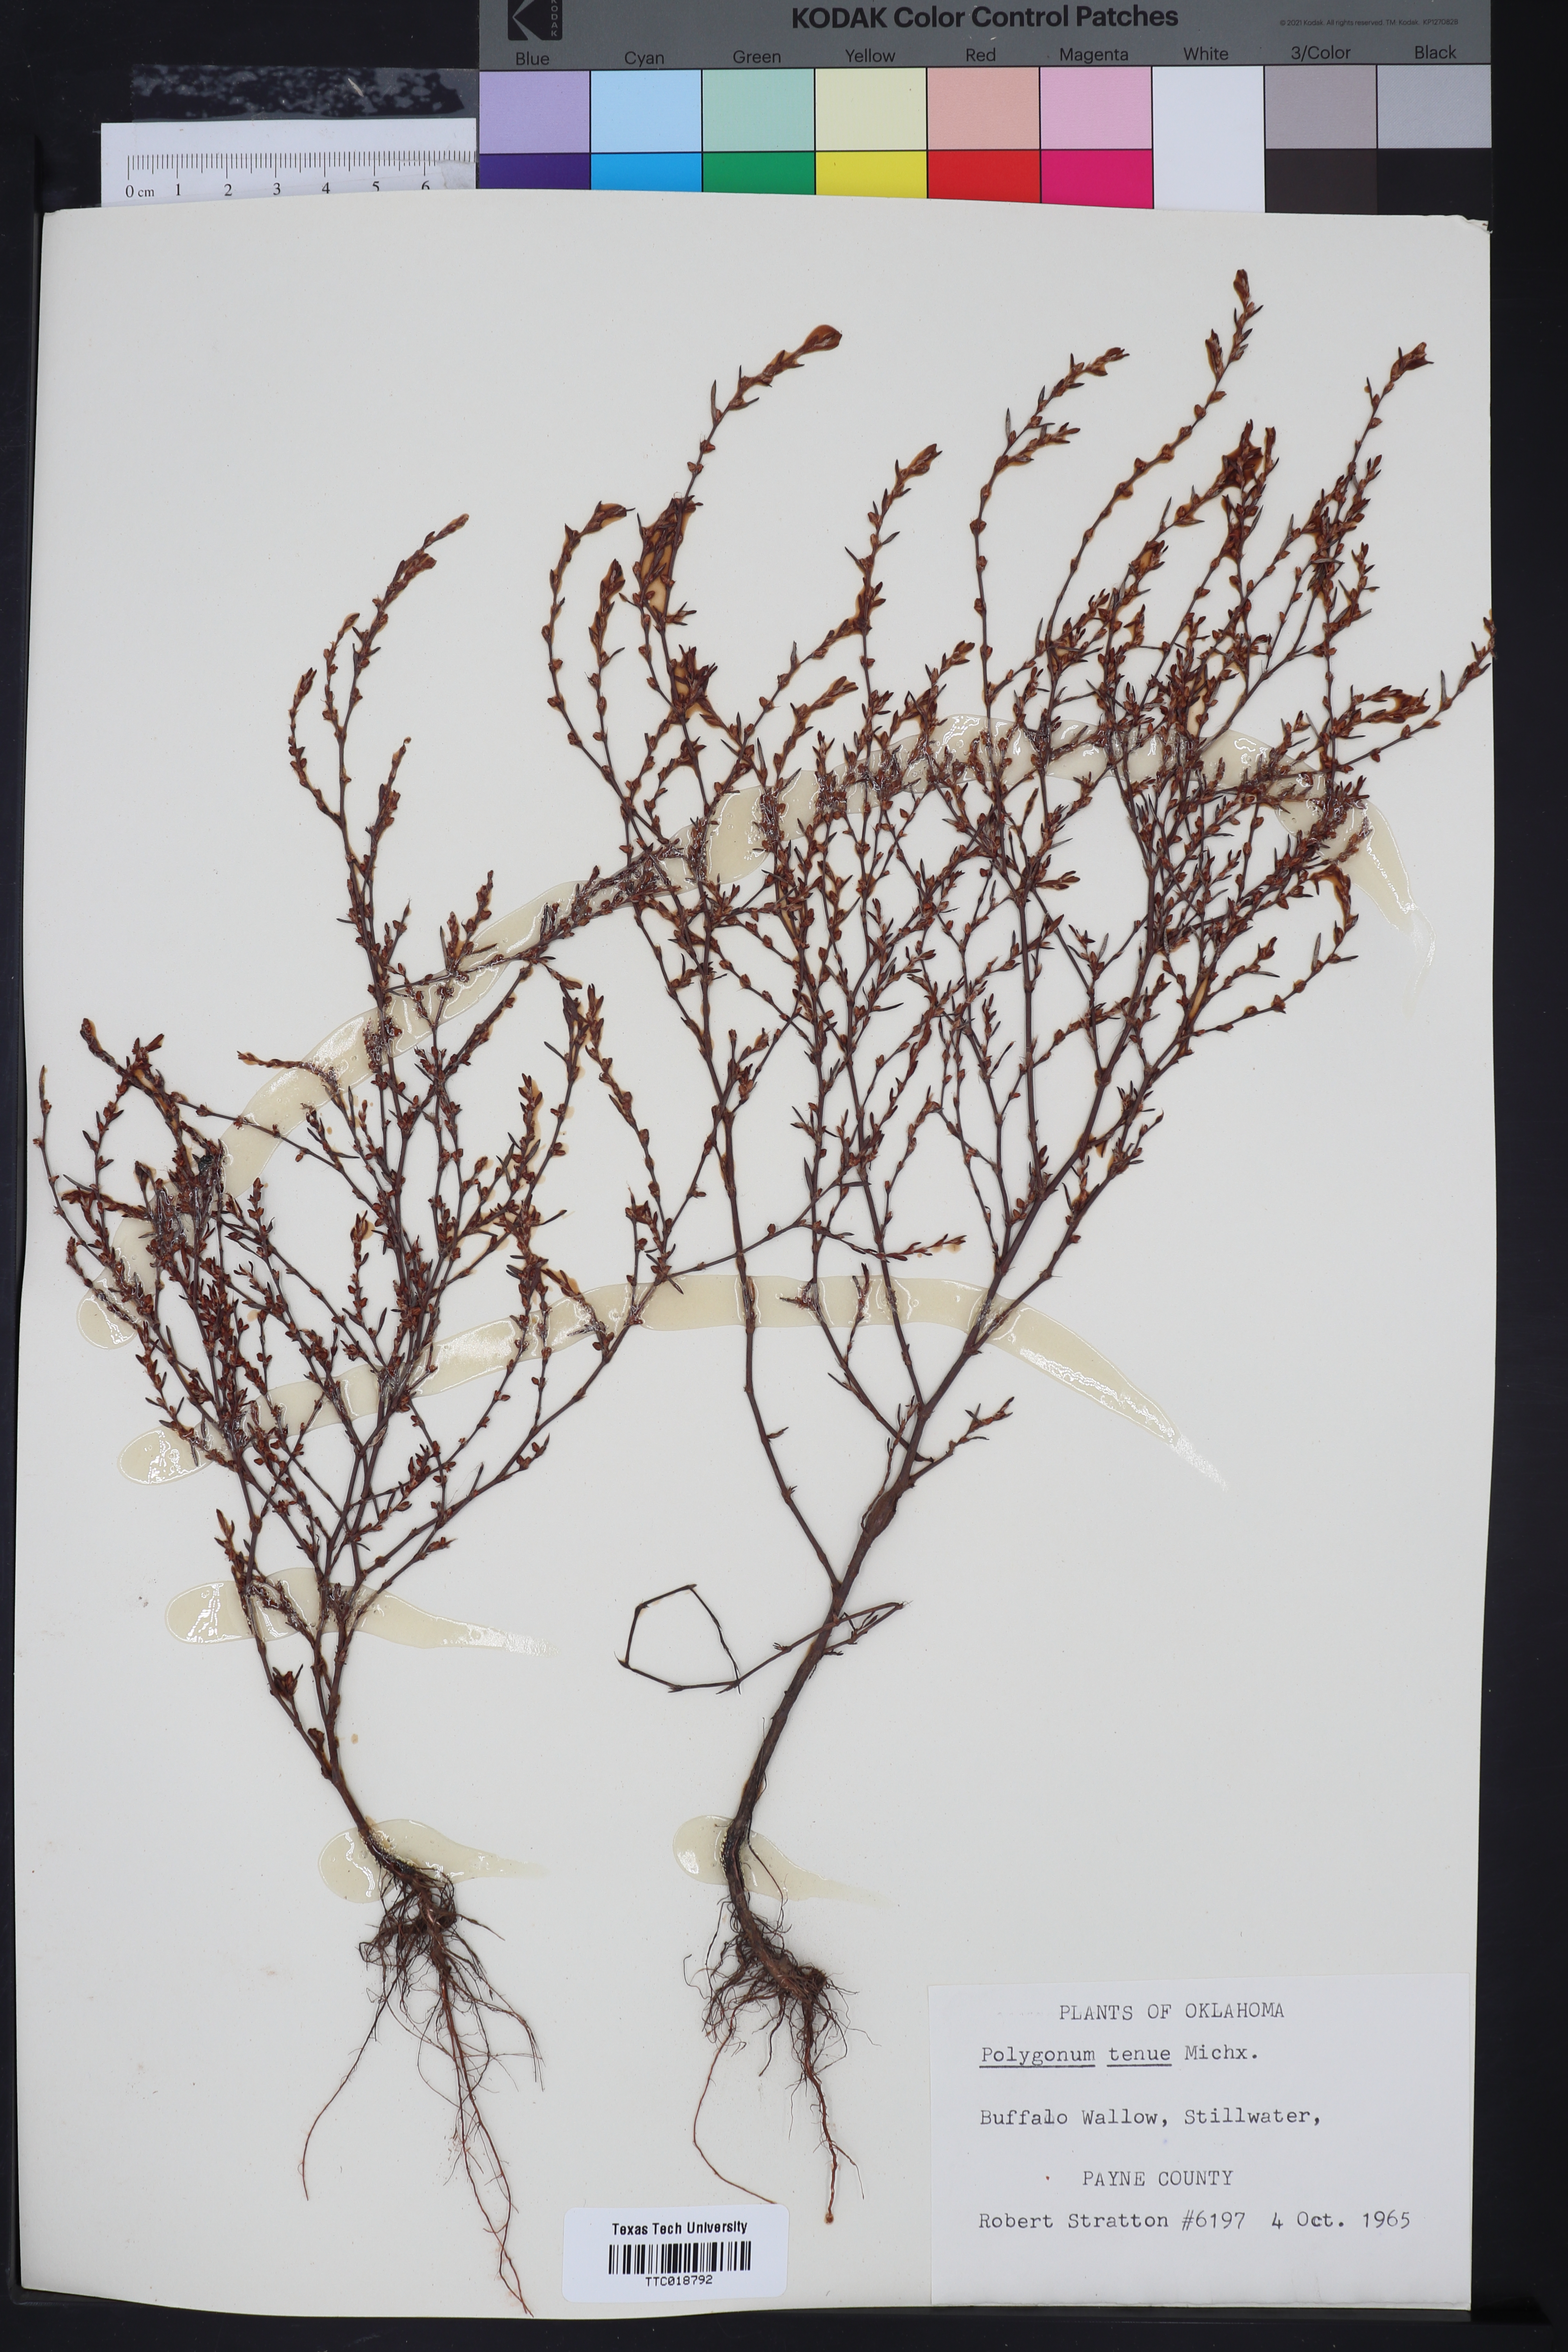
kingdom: Plantae
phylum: Tracheophyta
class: Magnoliopsida
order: Caryophyllales
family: Polygonaceae
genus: Polygonum
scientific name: Polygonum tenue
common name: Pleat-leaved knotweed
